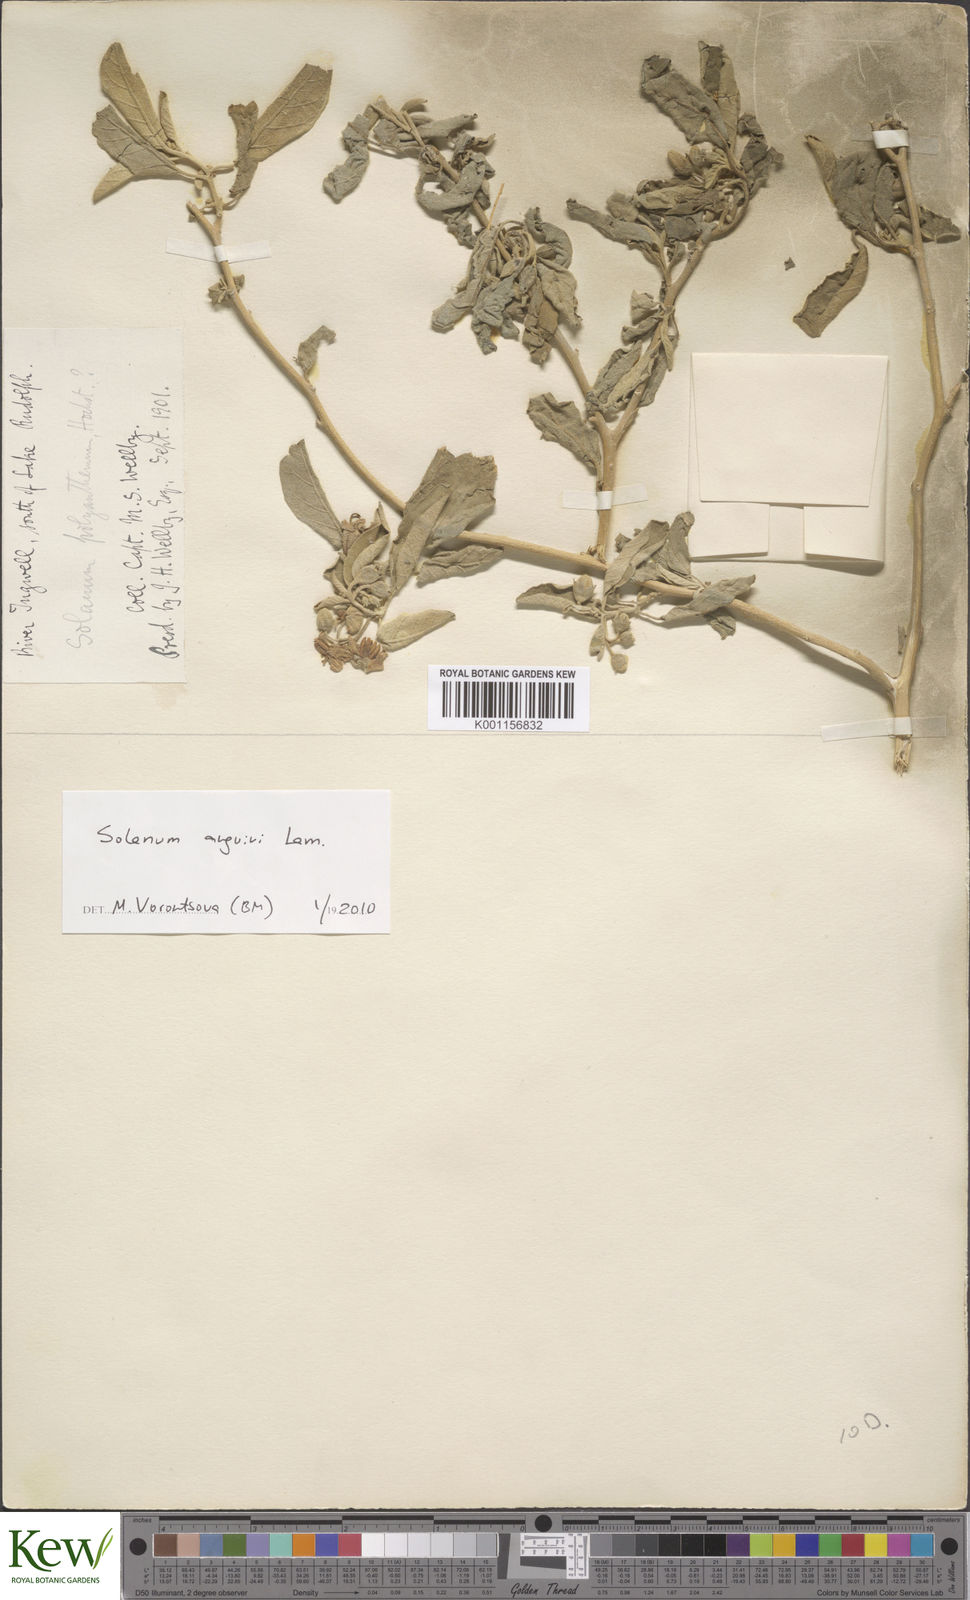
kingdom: Plantae
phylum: Tracheophyta
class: Magnoliopsida
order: Solanales
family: Solanaceae
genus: Solanum
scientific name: Solanum anguivi
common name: Forest bitterberry
